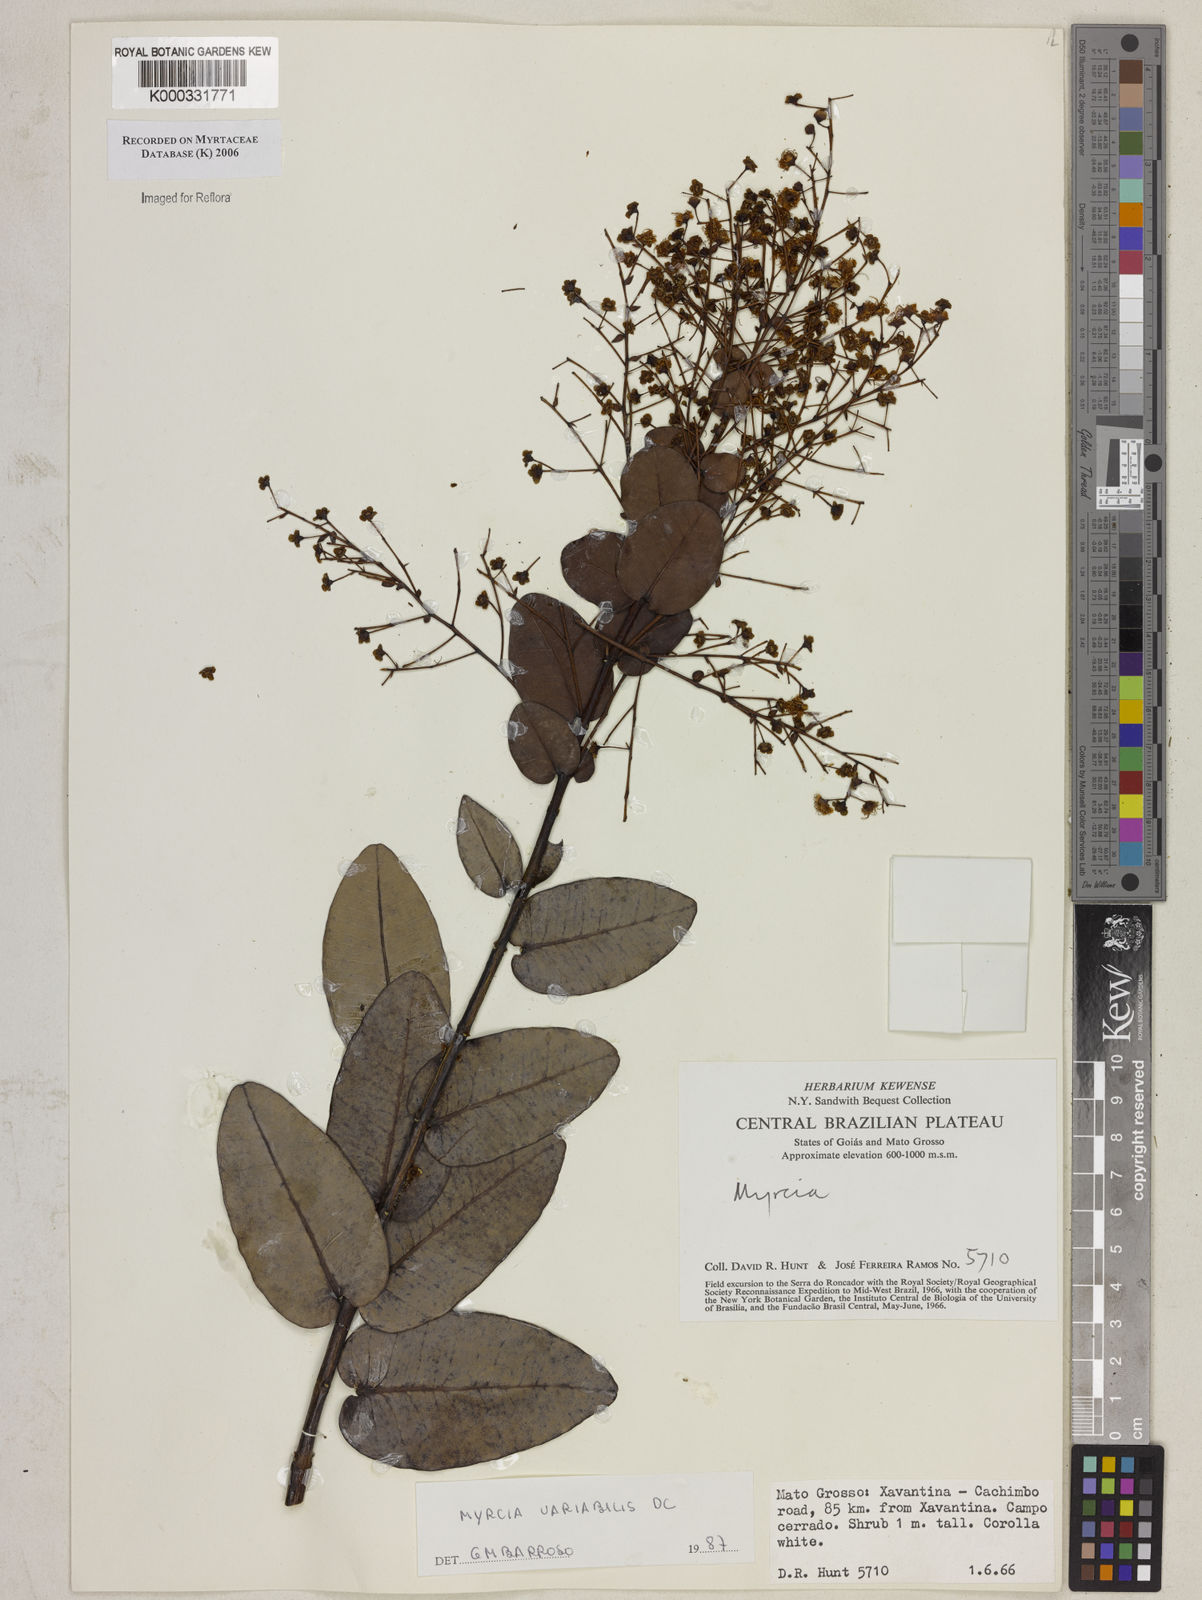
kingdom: Plantae
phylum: Tracheophyta
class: Magnoliopsida
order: Myrtales
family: Myrtaceae
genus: Myrcia
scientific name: Myrcia variabilis
